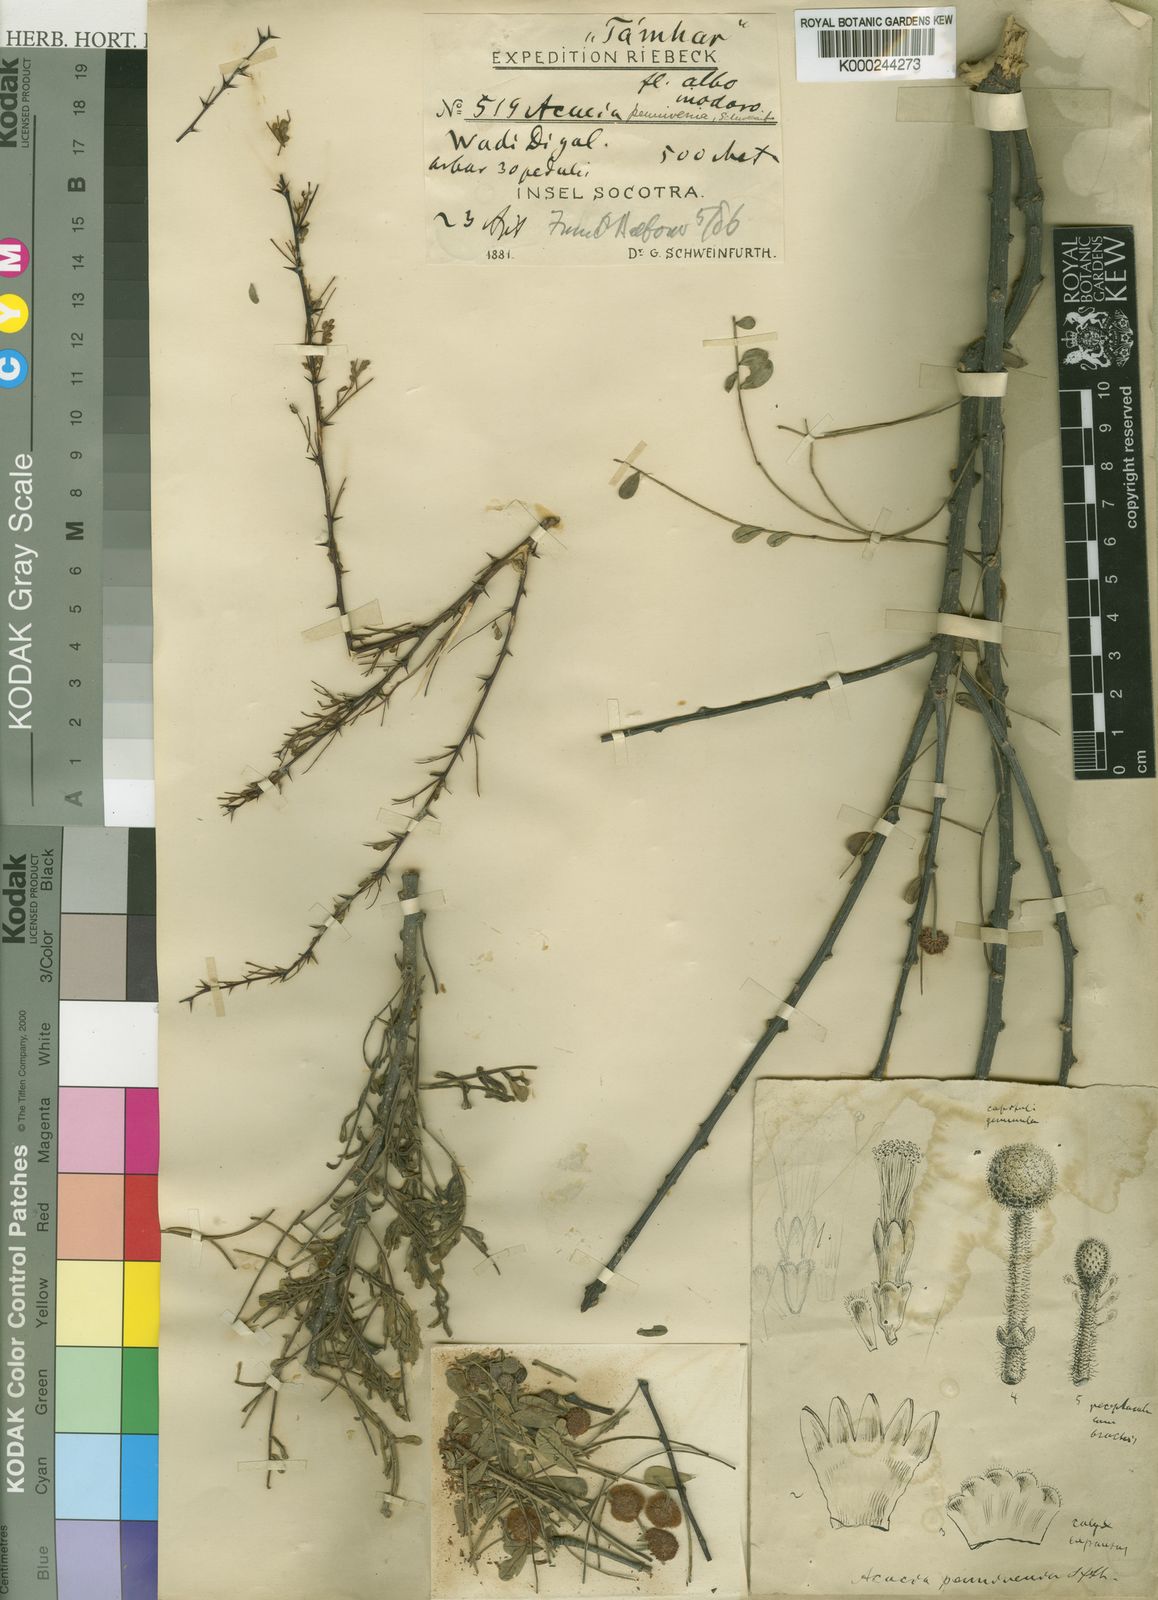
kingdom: Plantae
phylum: Tracheophyta
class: Magnoliopsida
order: Fabales
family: Fabaceae
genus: Acacia
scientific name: Acacia
